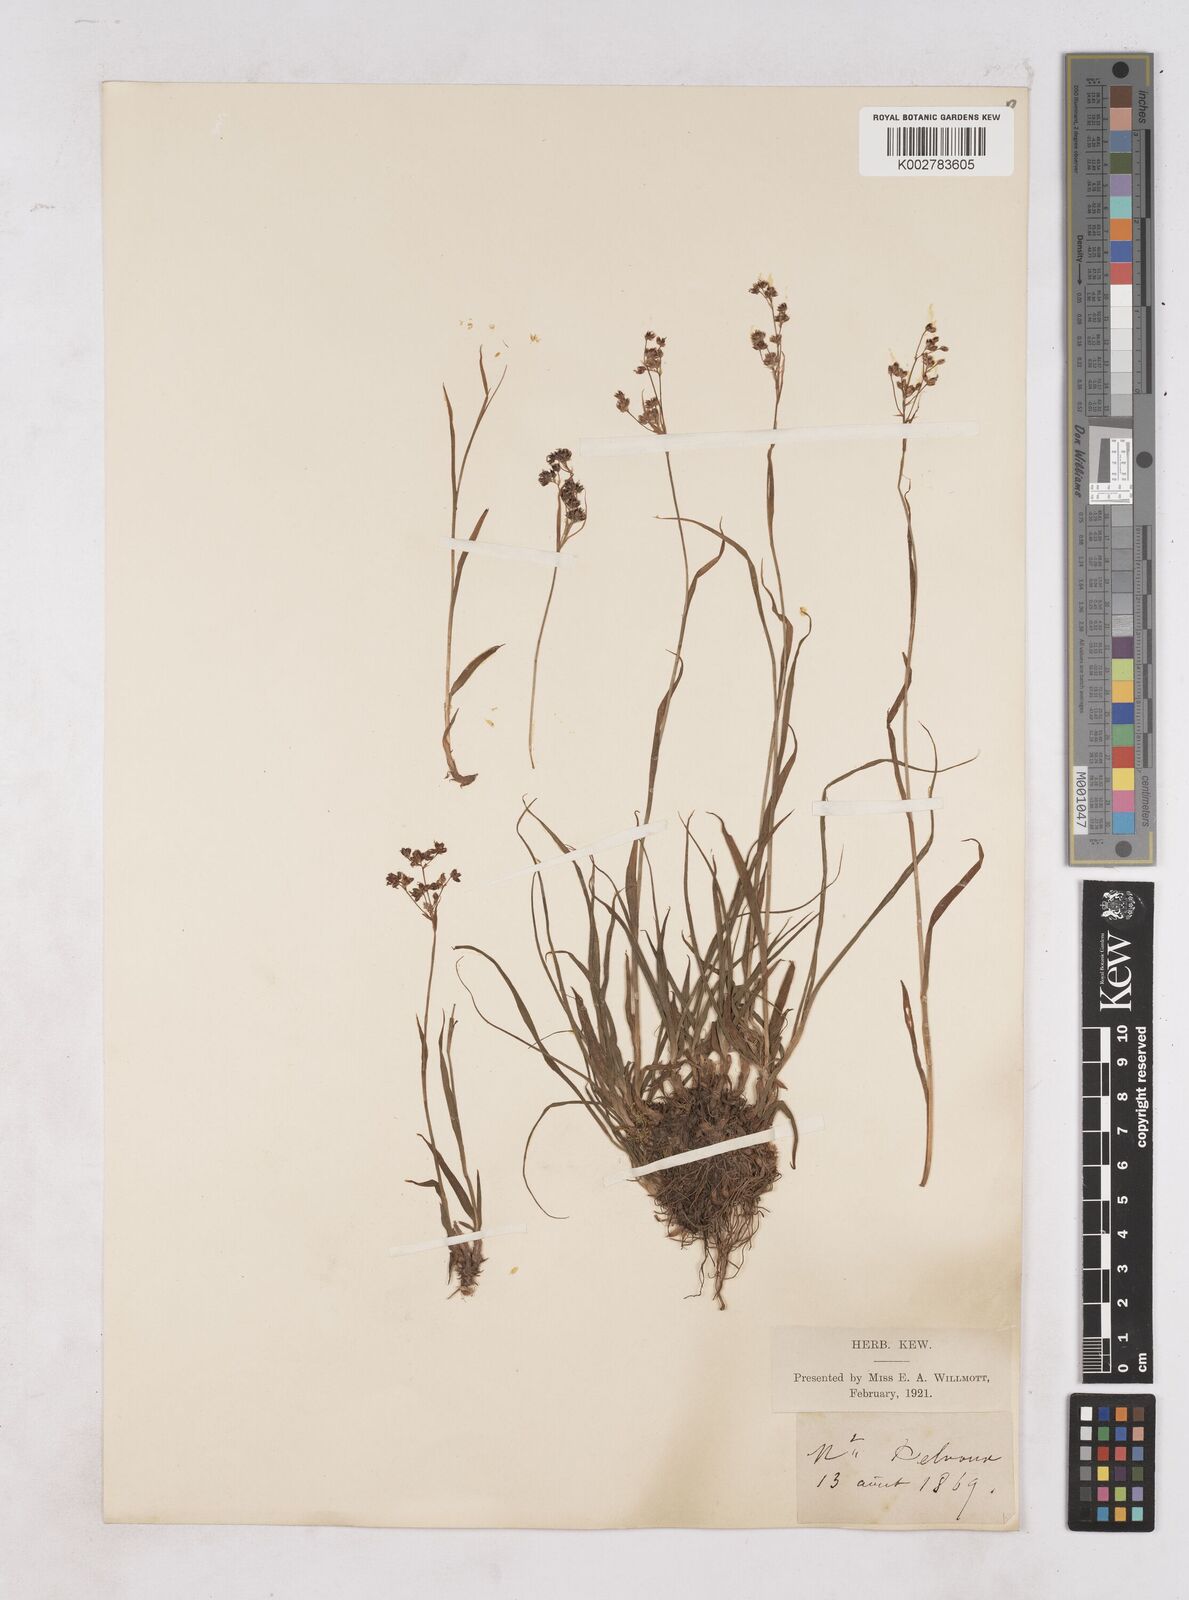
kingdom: Plantae
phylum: Tracheophyta
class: Liliopsida
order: Poales
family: Juncaceae
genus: Luzula
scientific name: Luzula
